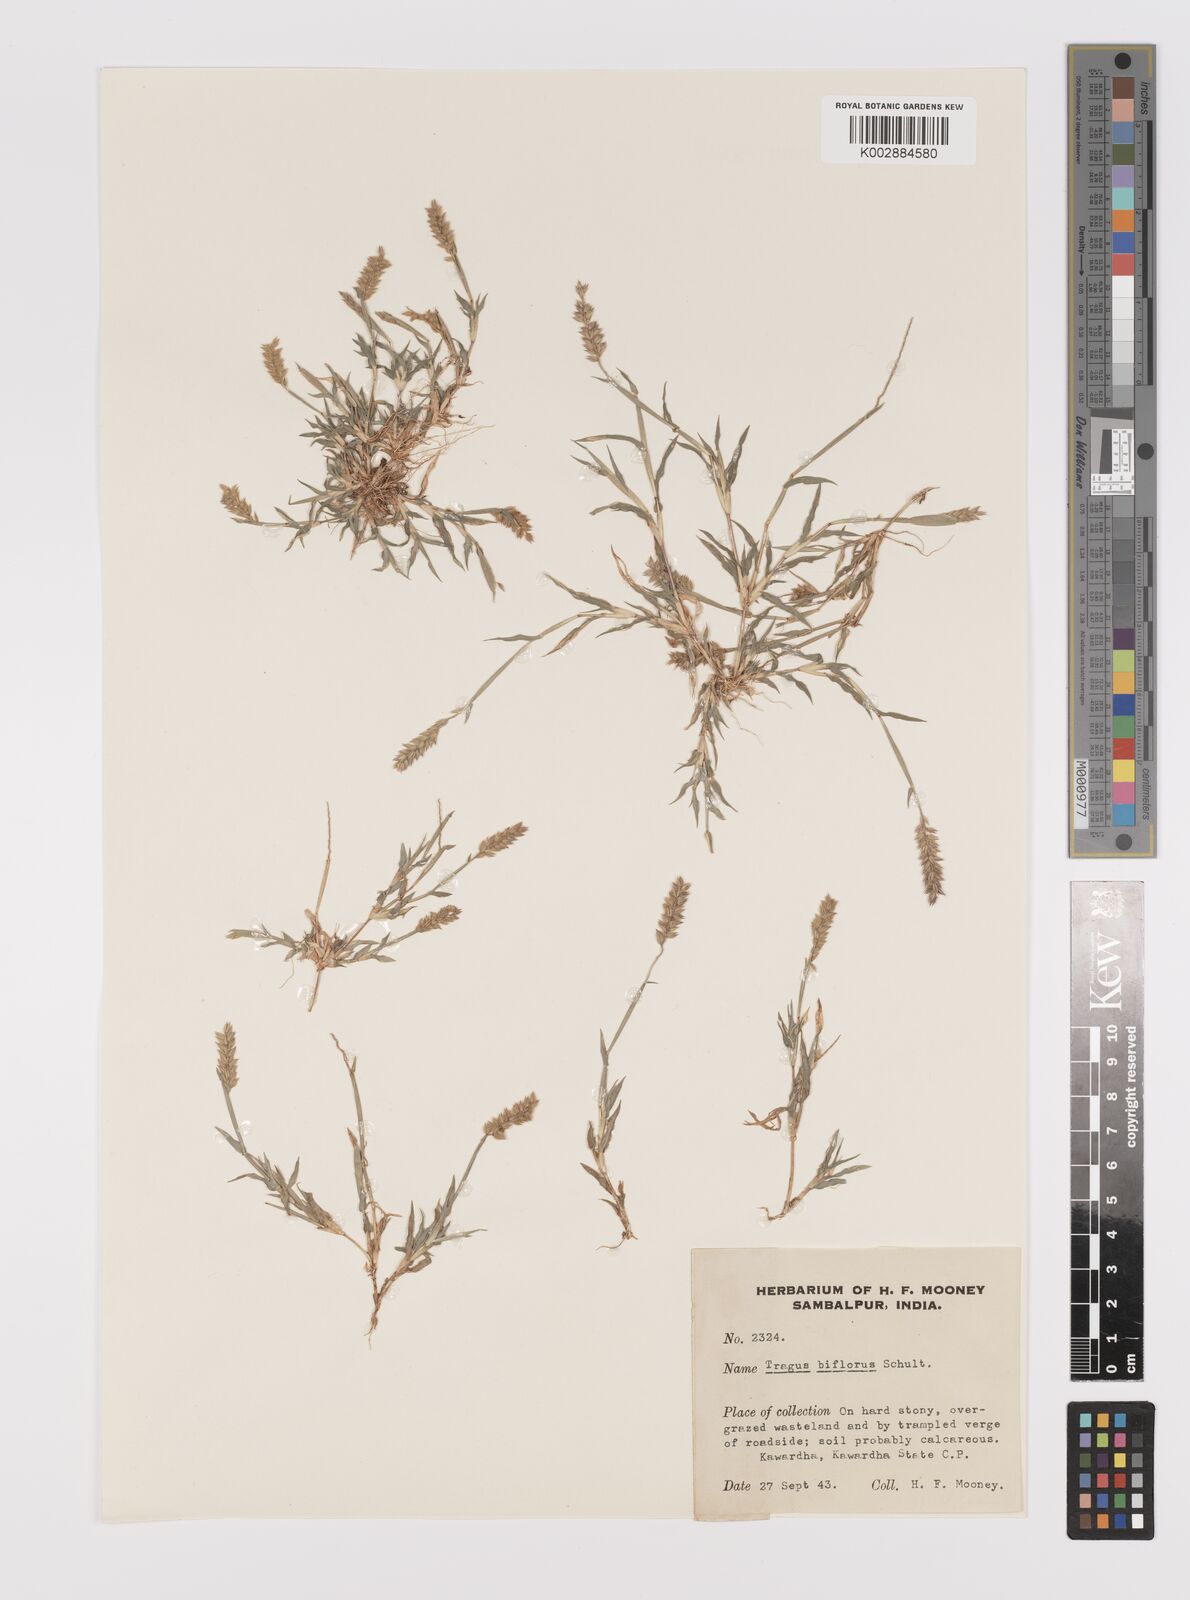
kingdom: Plantae
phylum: Tracheophyta
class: Liliopsida
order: Poales
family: Poaceae
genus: Tragus
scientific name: Tragus mongolorum
